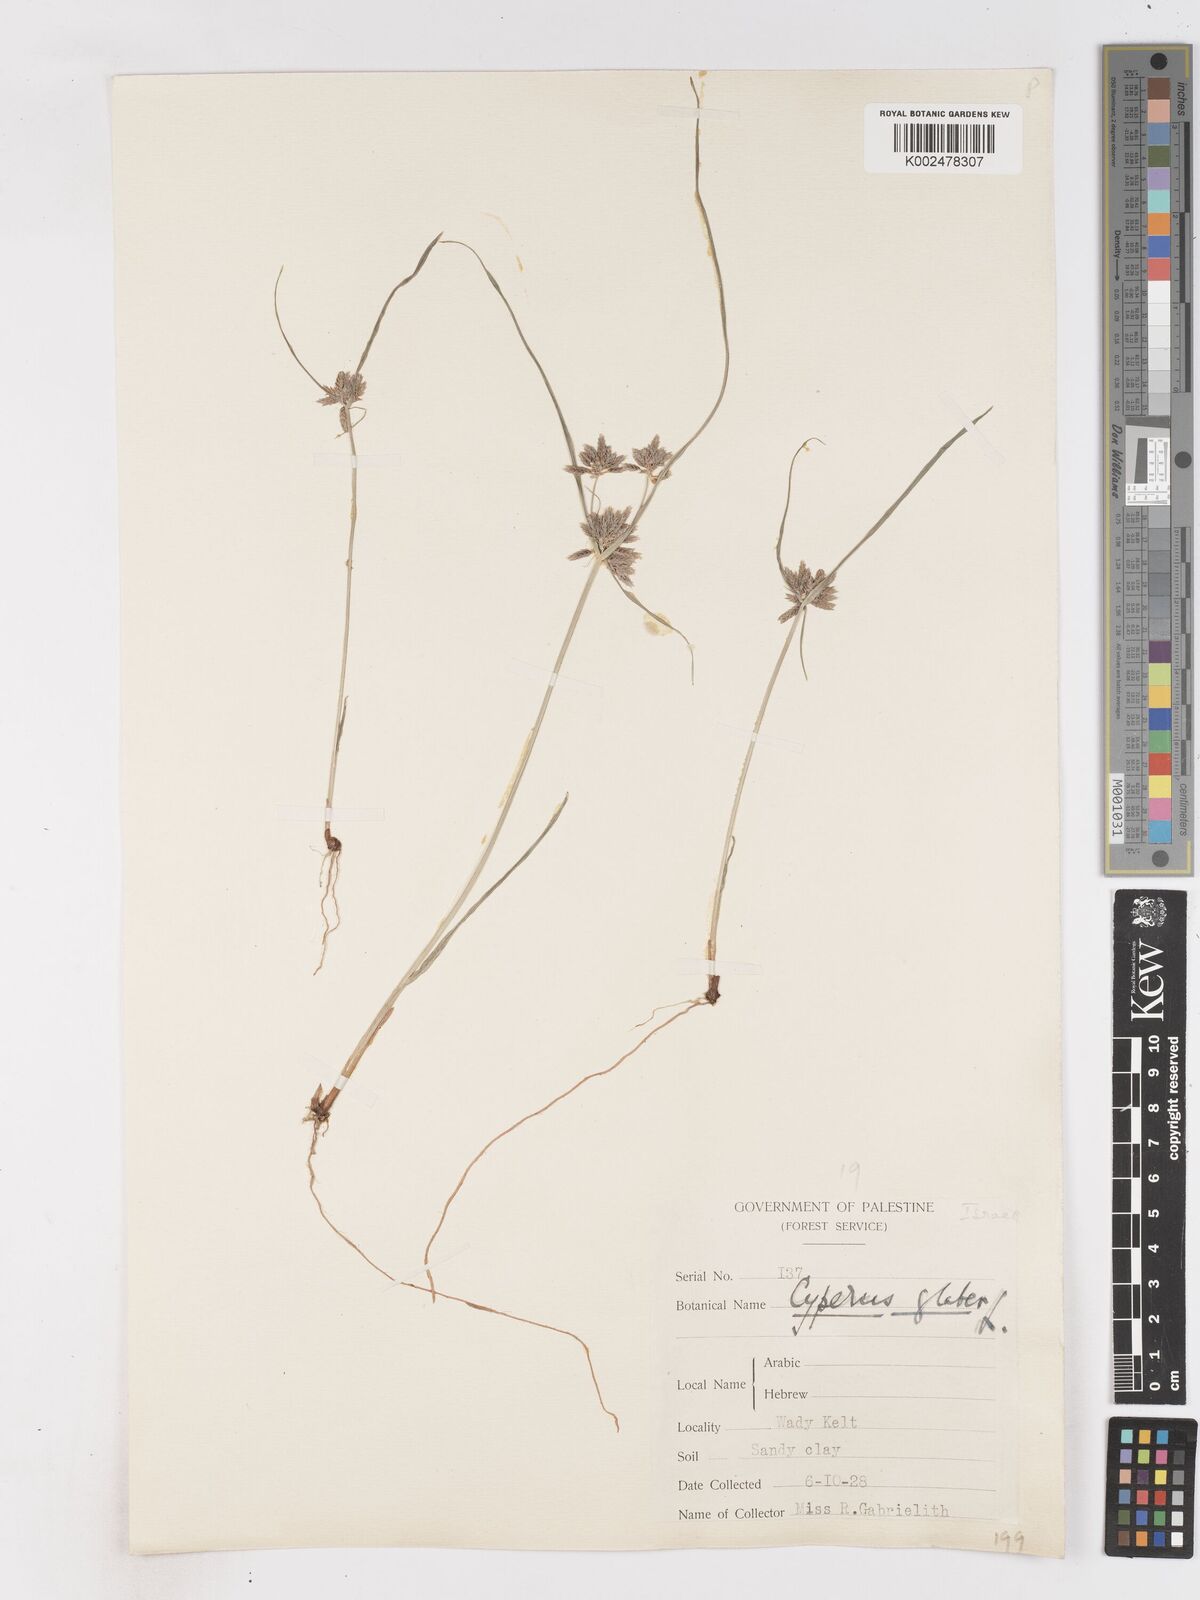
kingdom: Plantae
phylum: Tracheophyta
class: Liliopsida
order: Poales
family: Cyperaceae
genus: Cyperus
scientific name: Cyperus glaber
